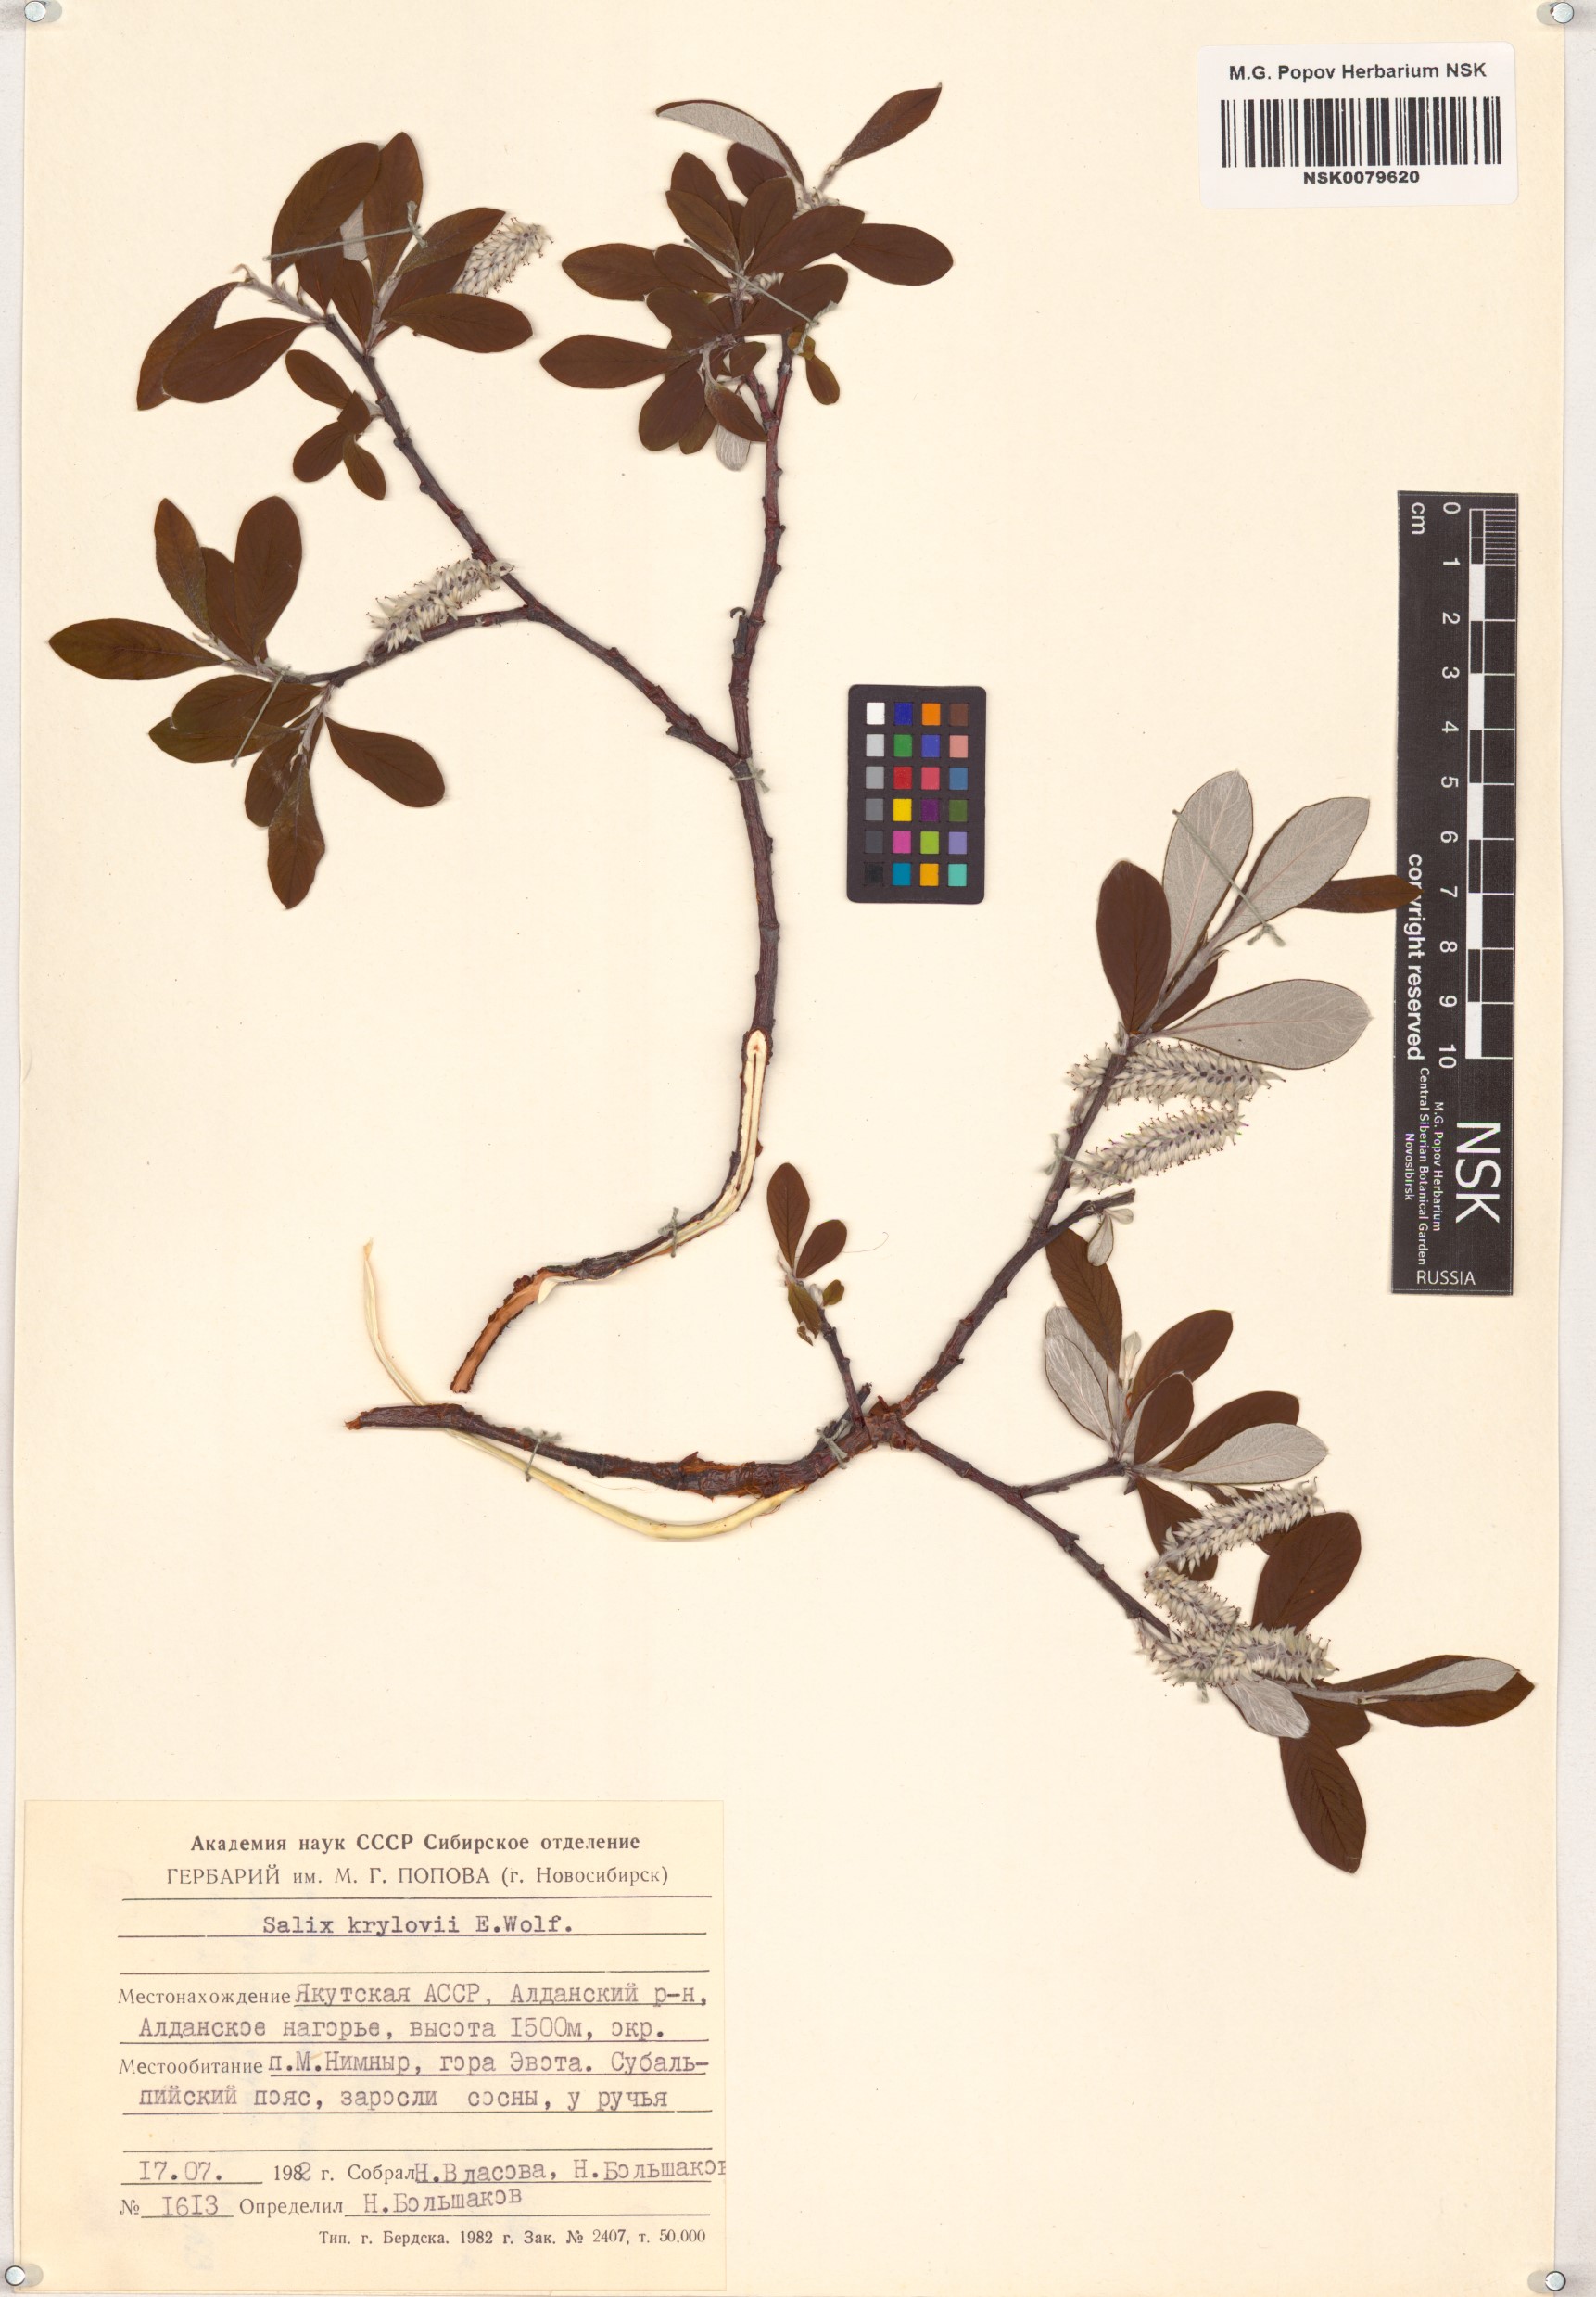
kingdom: Plantae
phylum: Tracheophyta
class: Magnoliopsida
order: Malpighiales
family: Salicaceae
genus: Salix
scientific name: Salix krylovii
